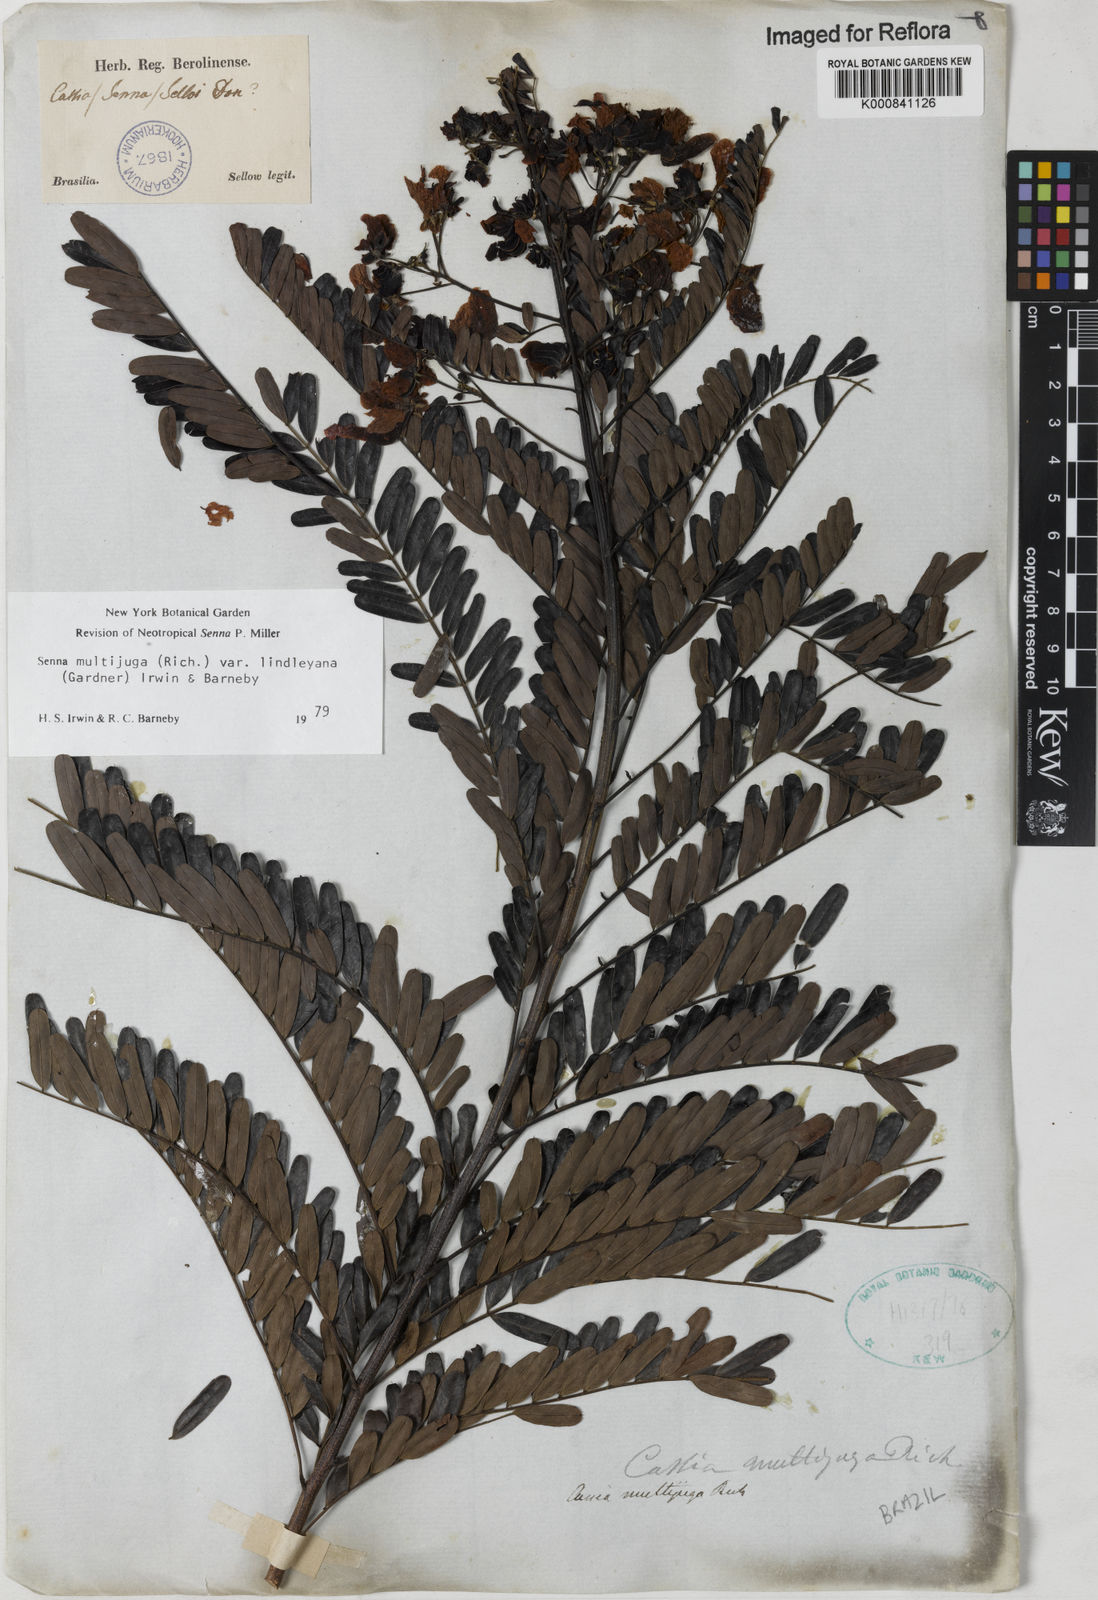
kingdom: Plantae
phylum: Tracheophyta
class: Magnoliopsida
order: Fabales
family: Fabaceae
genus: Senna
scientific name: Senna multijuga
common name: False sicklepod
